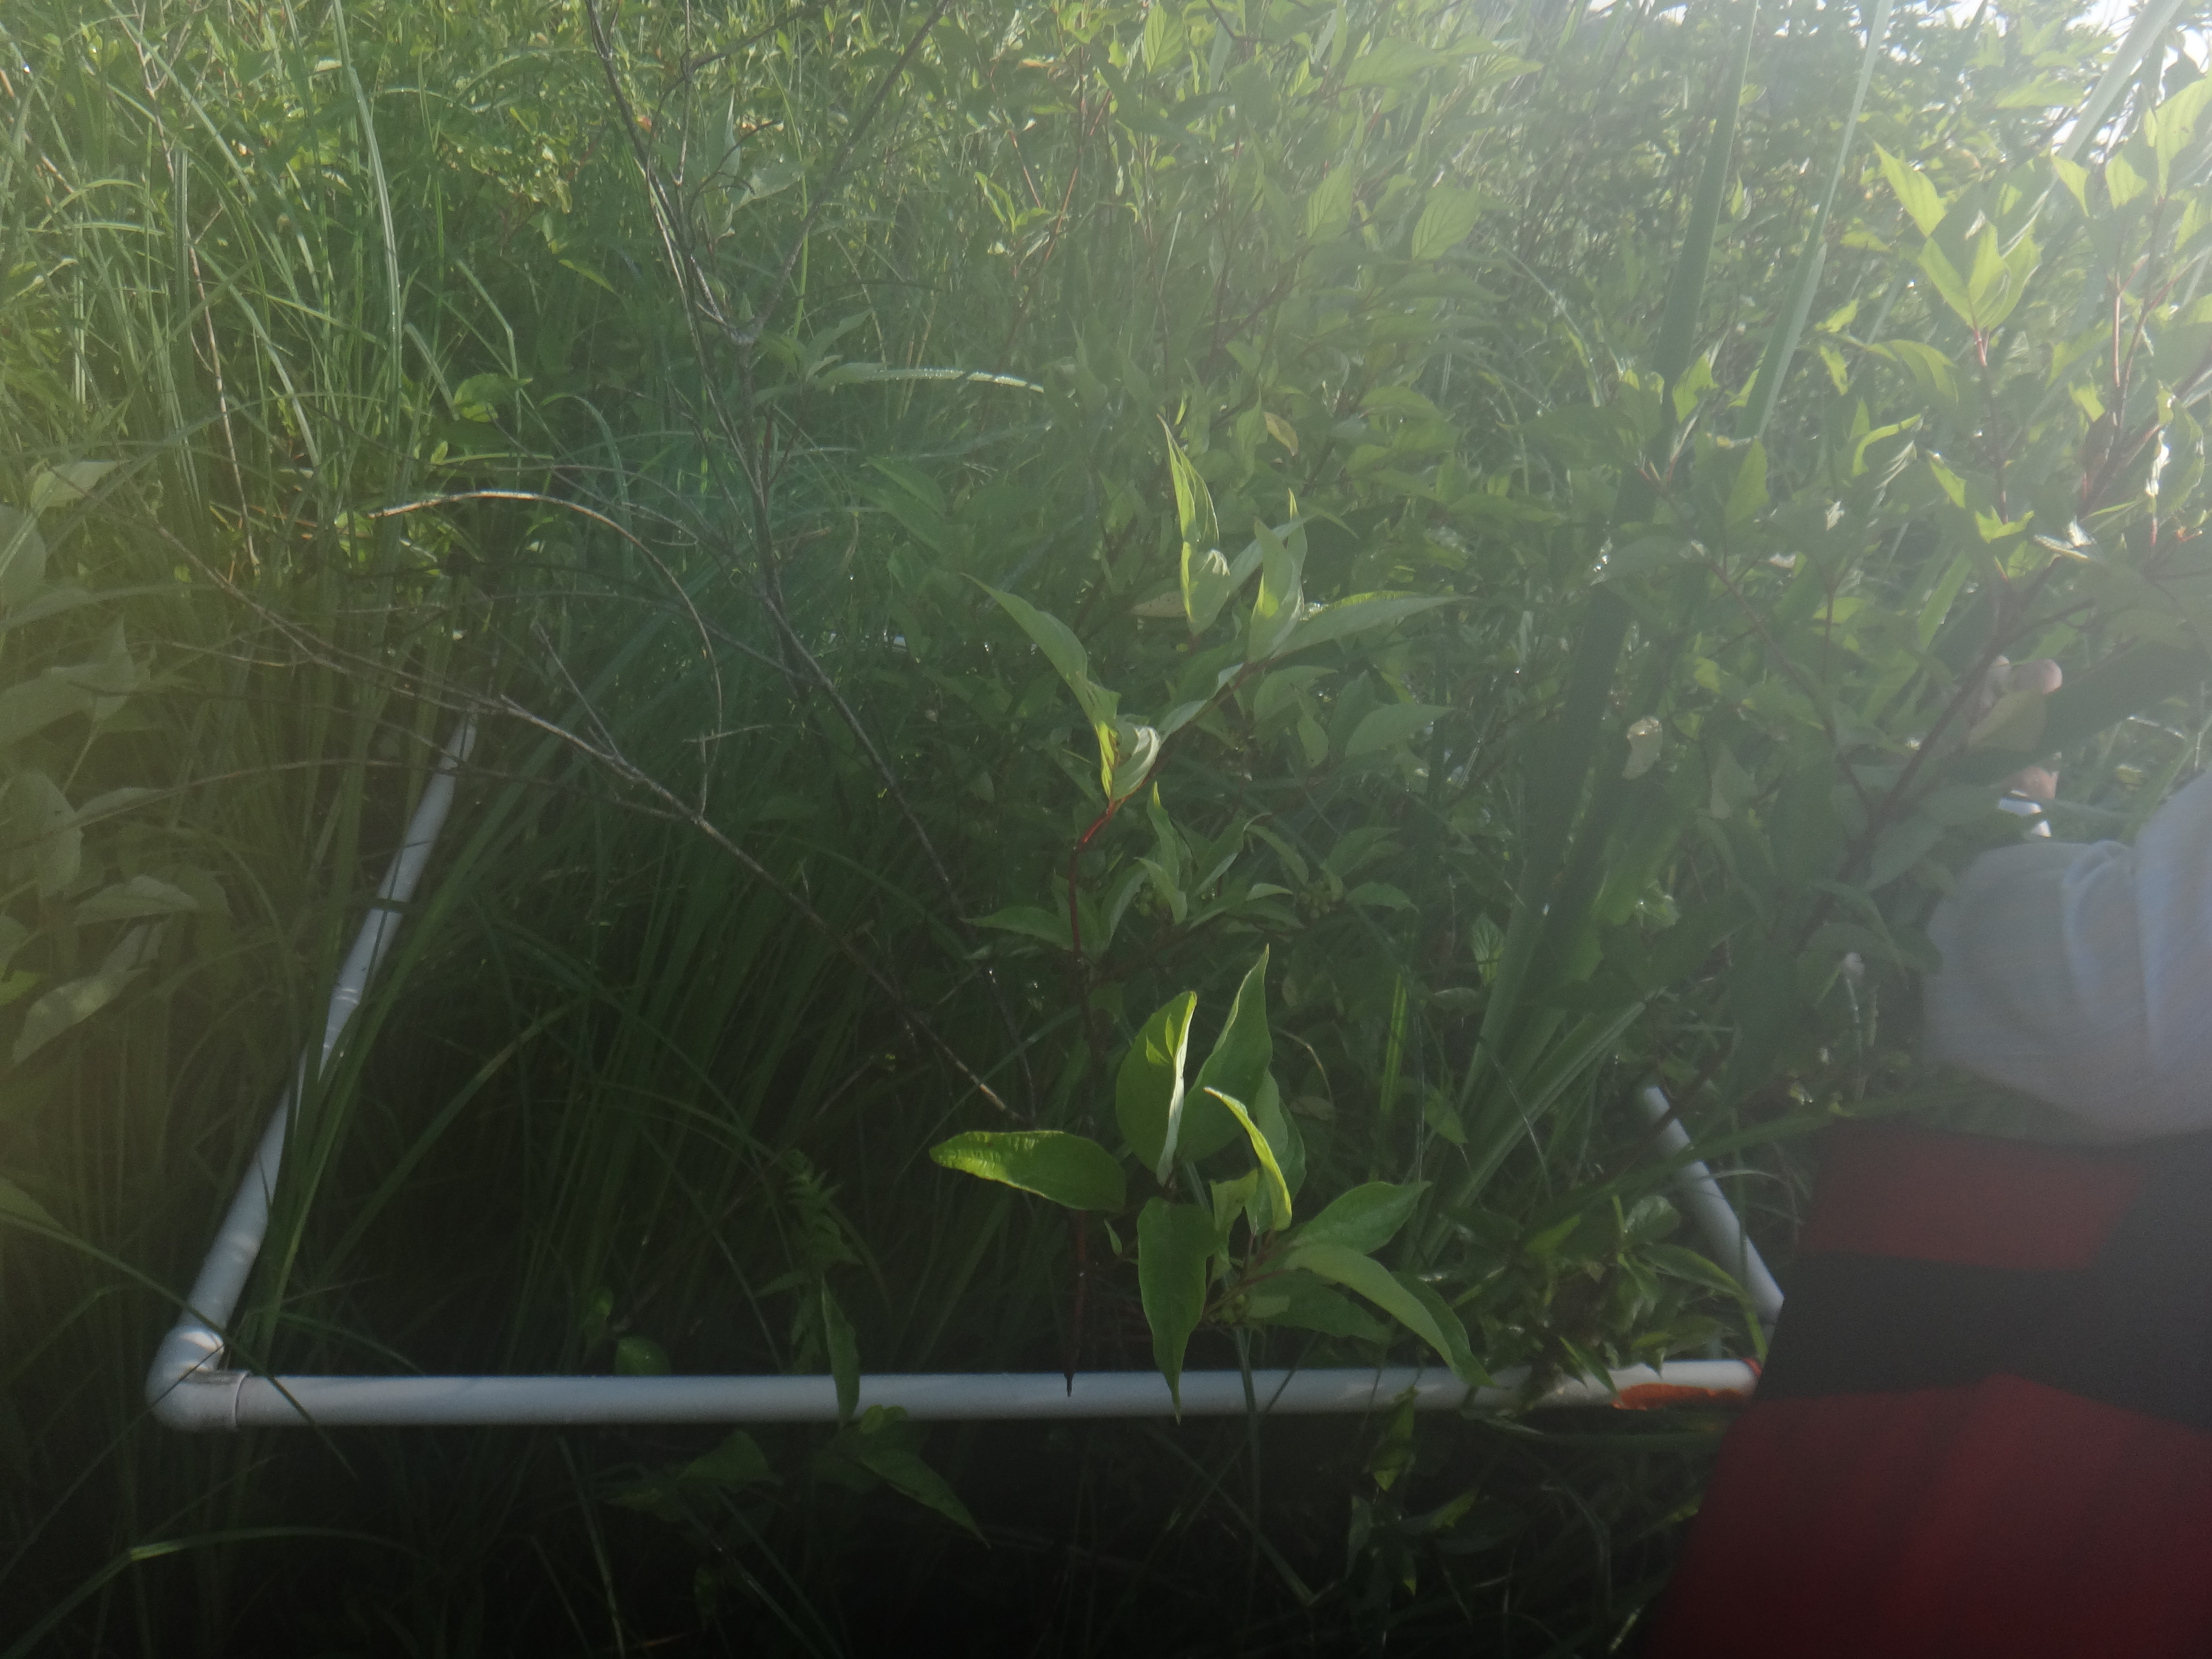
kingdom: Plantae
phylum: Tracheophyta
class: Liliopsida
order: Poales
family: Cyperaceae
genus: Carex
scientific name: Carex stricta
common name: Hummock sedge
